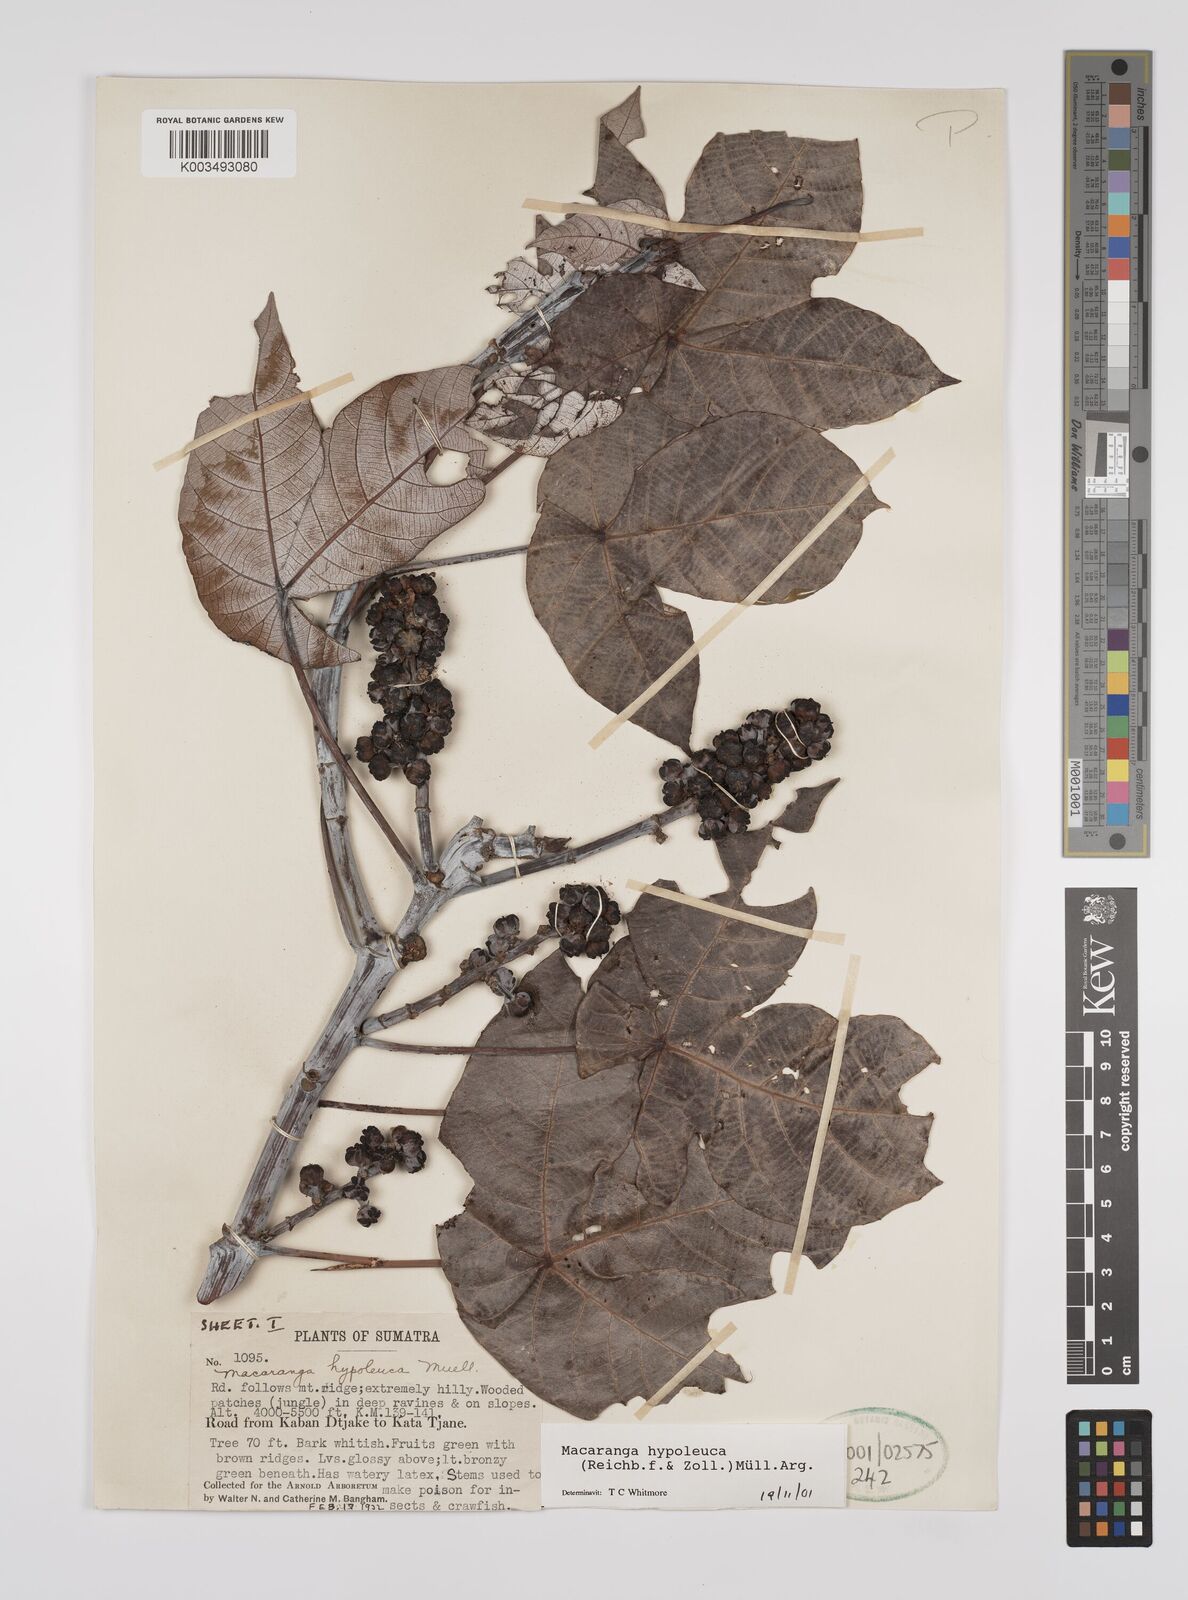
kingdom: Plantae
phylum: Tracheophyta
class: Magnoliopsida
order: Malpighiales
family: Euphorbiaceae
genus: Macaranga
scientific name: Macaranga hypoleuca
